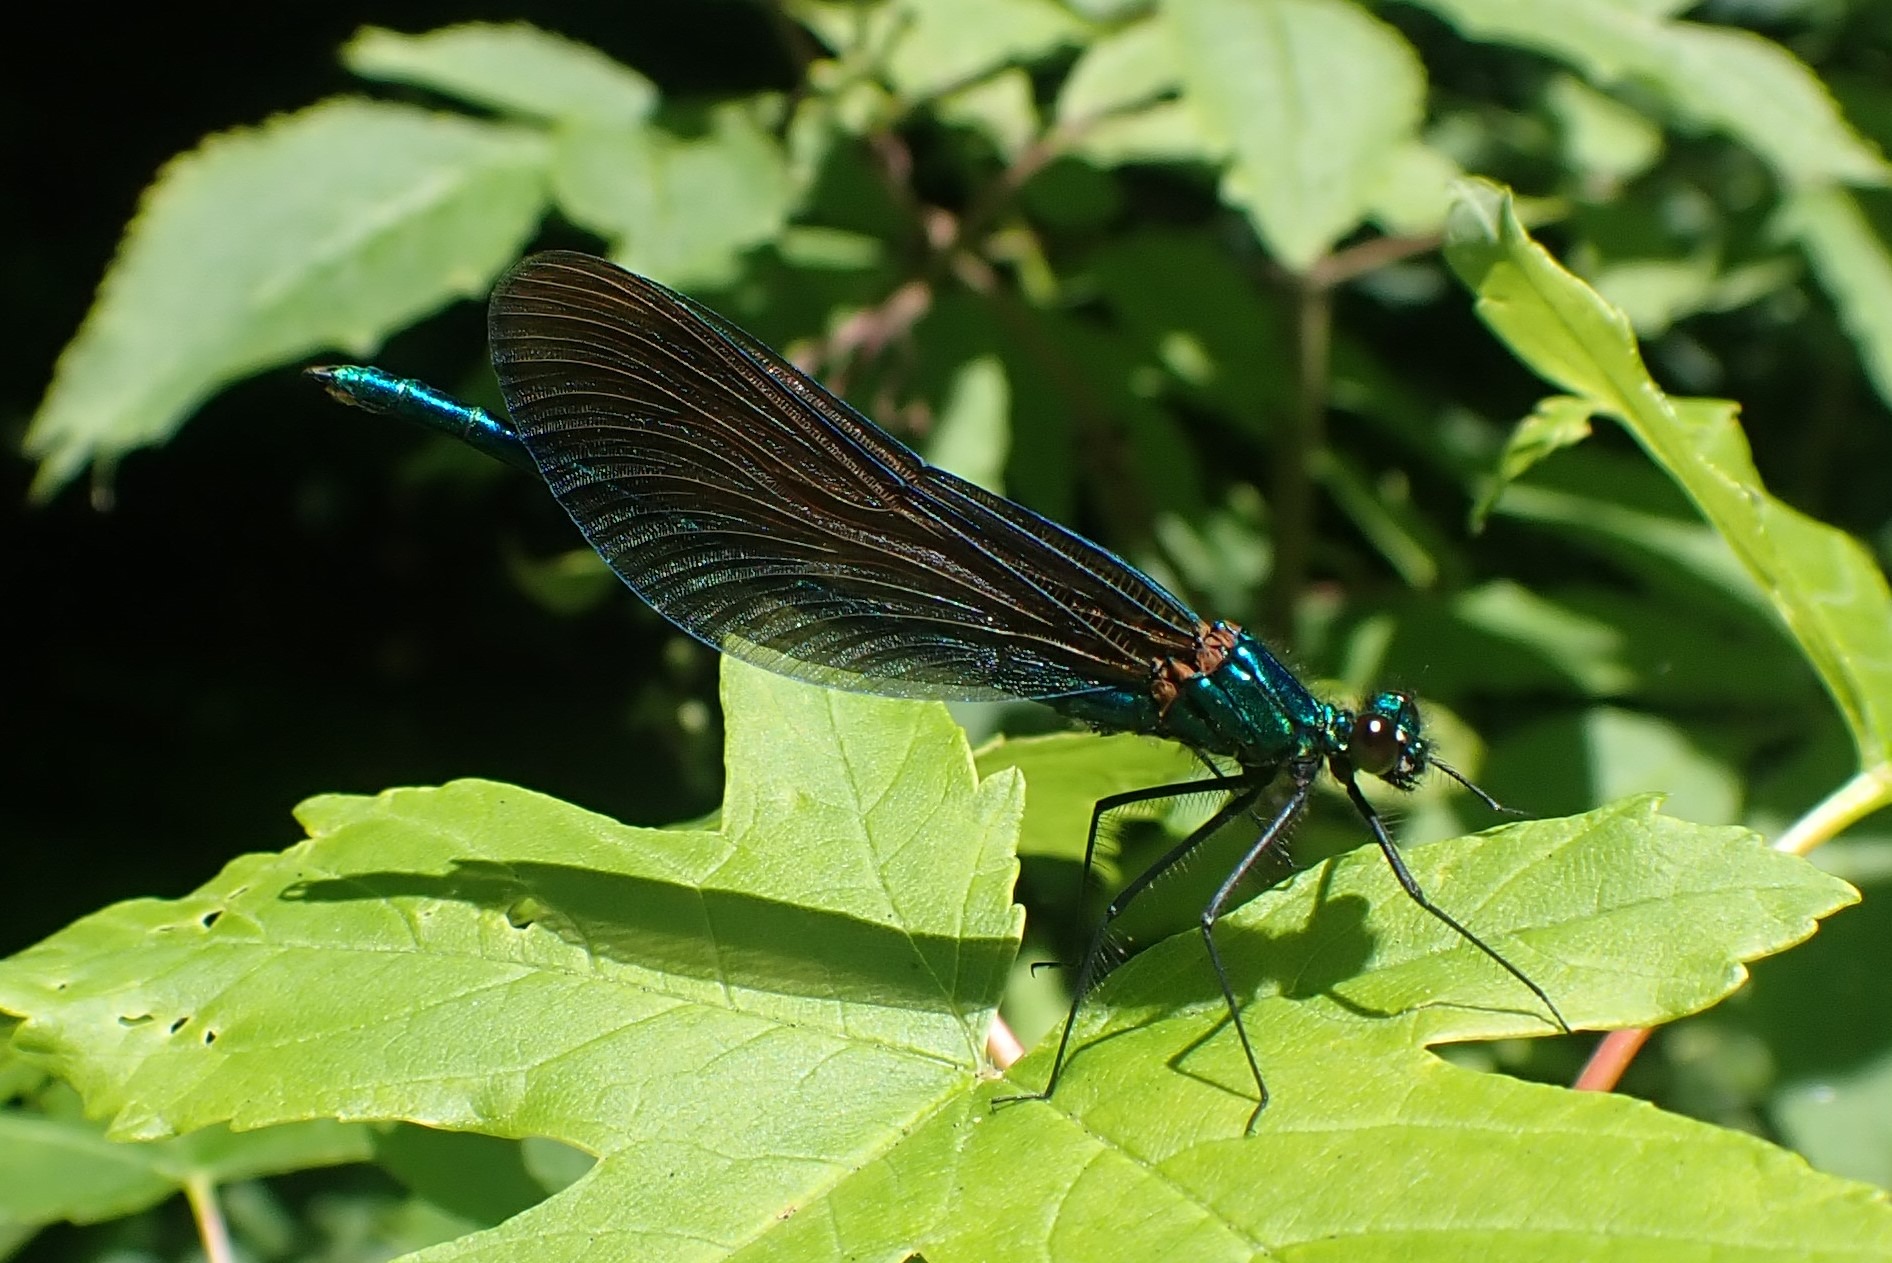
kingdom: Animalia
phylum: Arthropoda
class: Insecta
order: Odonata
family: Calopterygidae
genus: Calopteryx
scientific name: Calopteryx virgo
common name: Blåvinget pragtvandnymfe
